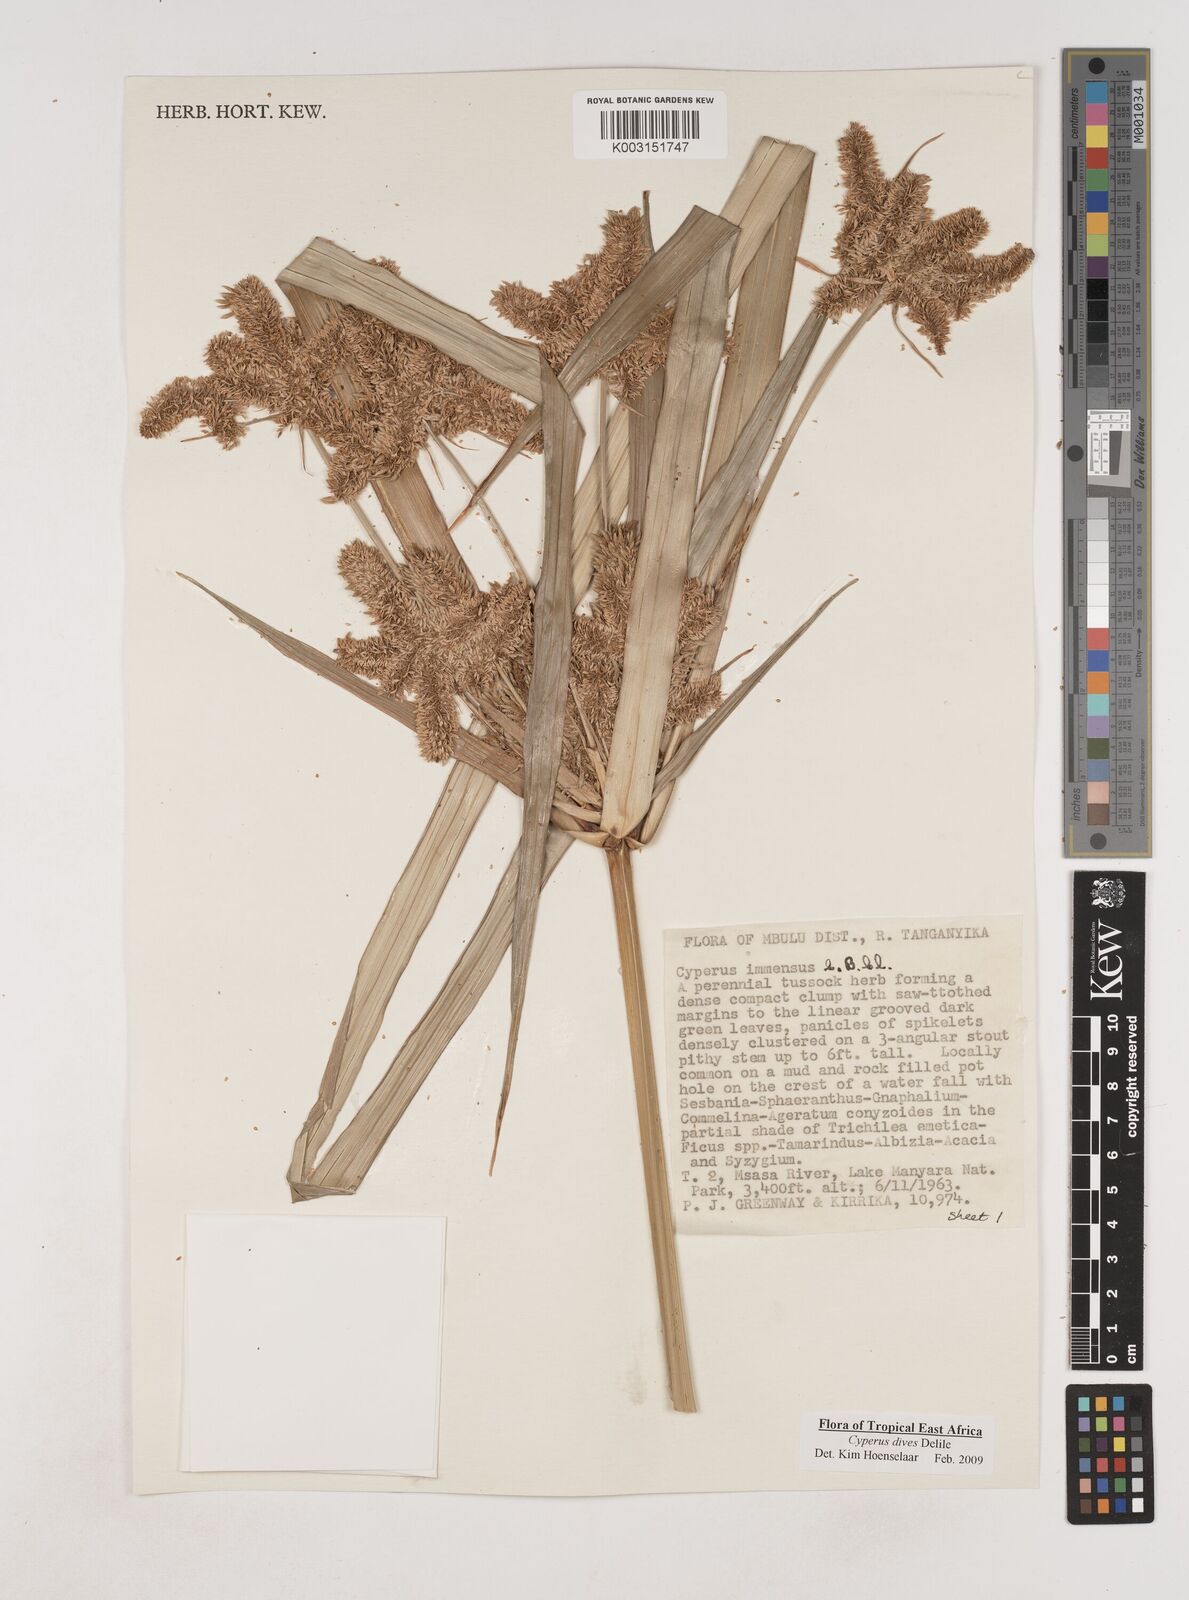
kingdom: Plantae
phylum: Tracheophyta
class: Liliopsida
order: Poales
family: Cyperaceae
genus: Cyperus
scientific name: Cyperus dives
